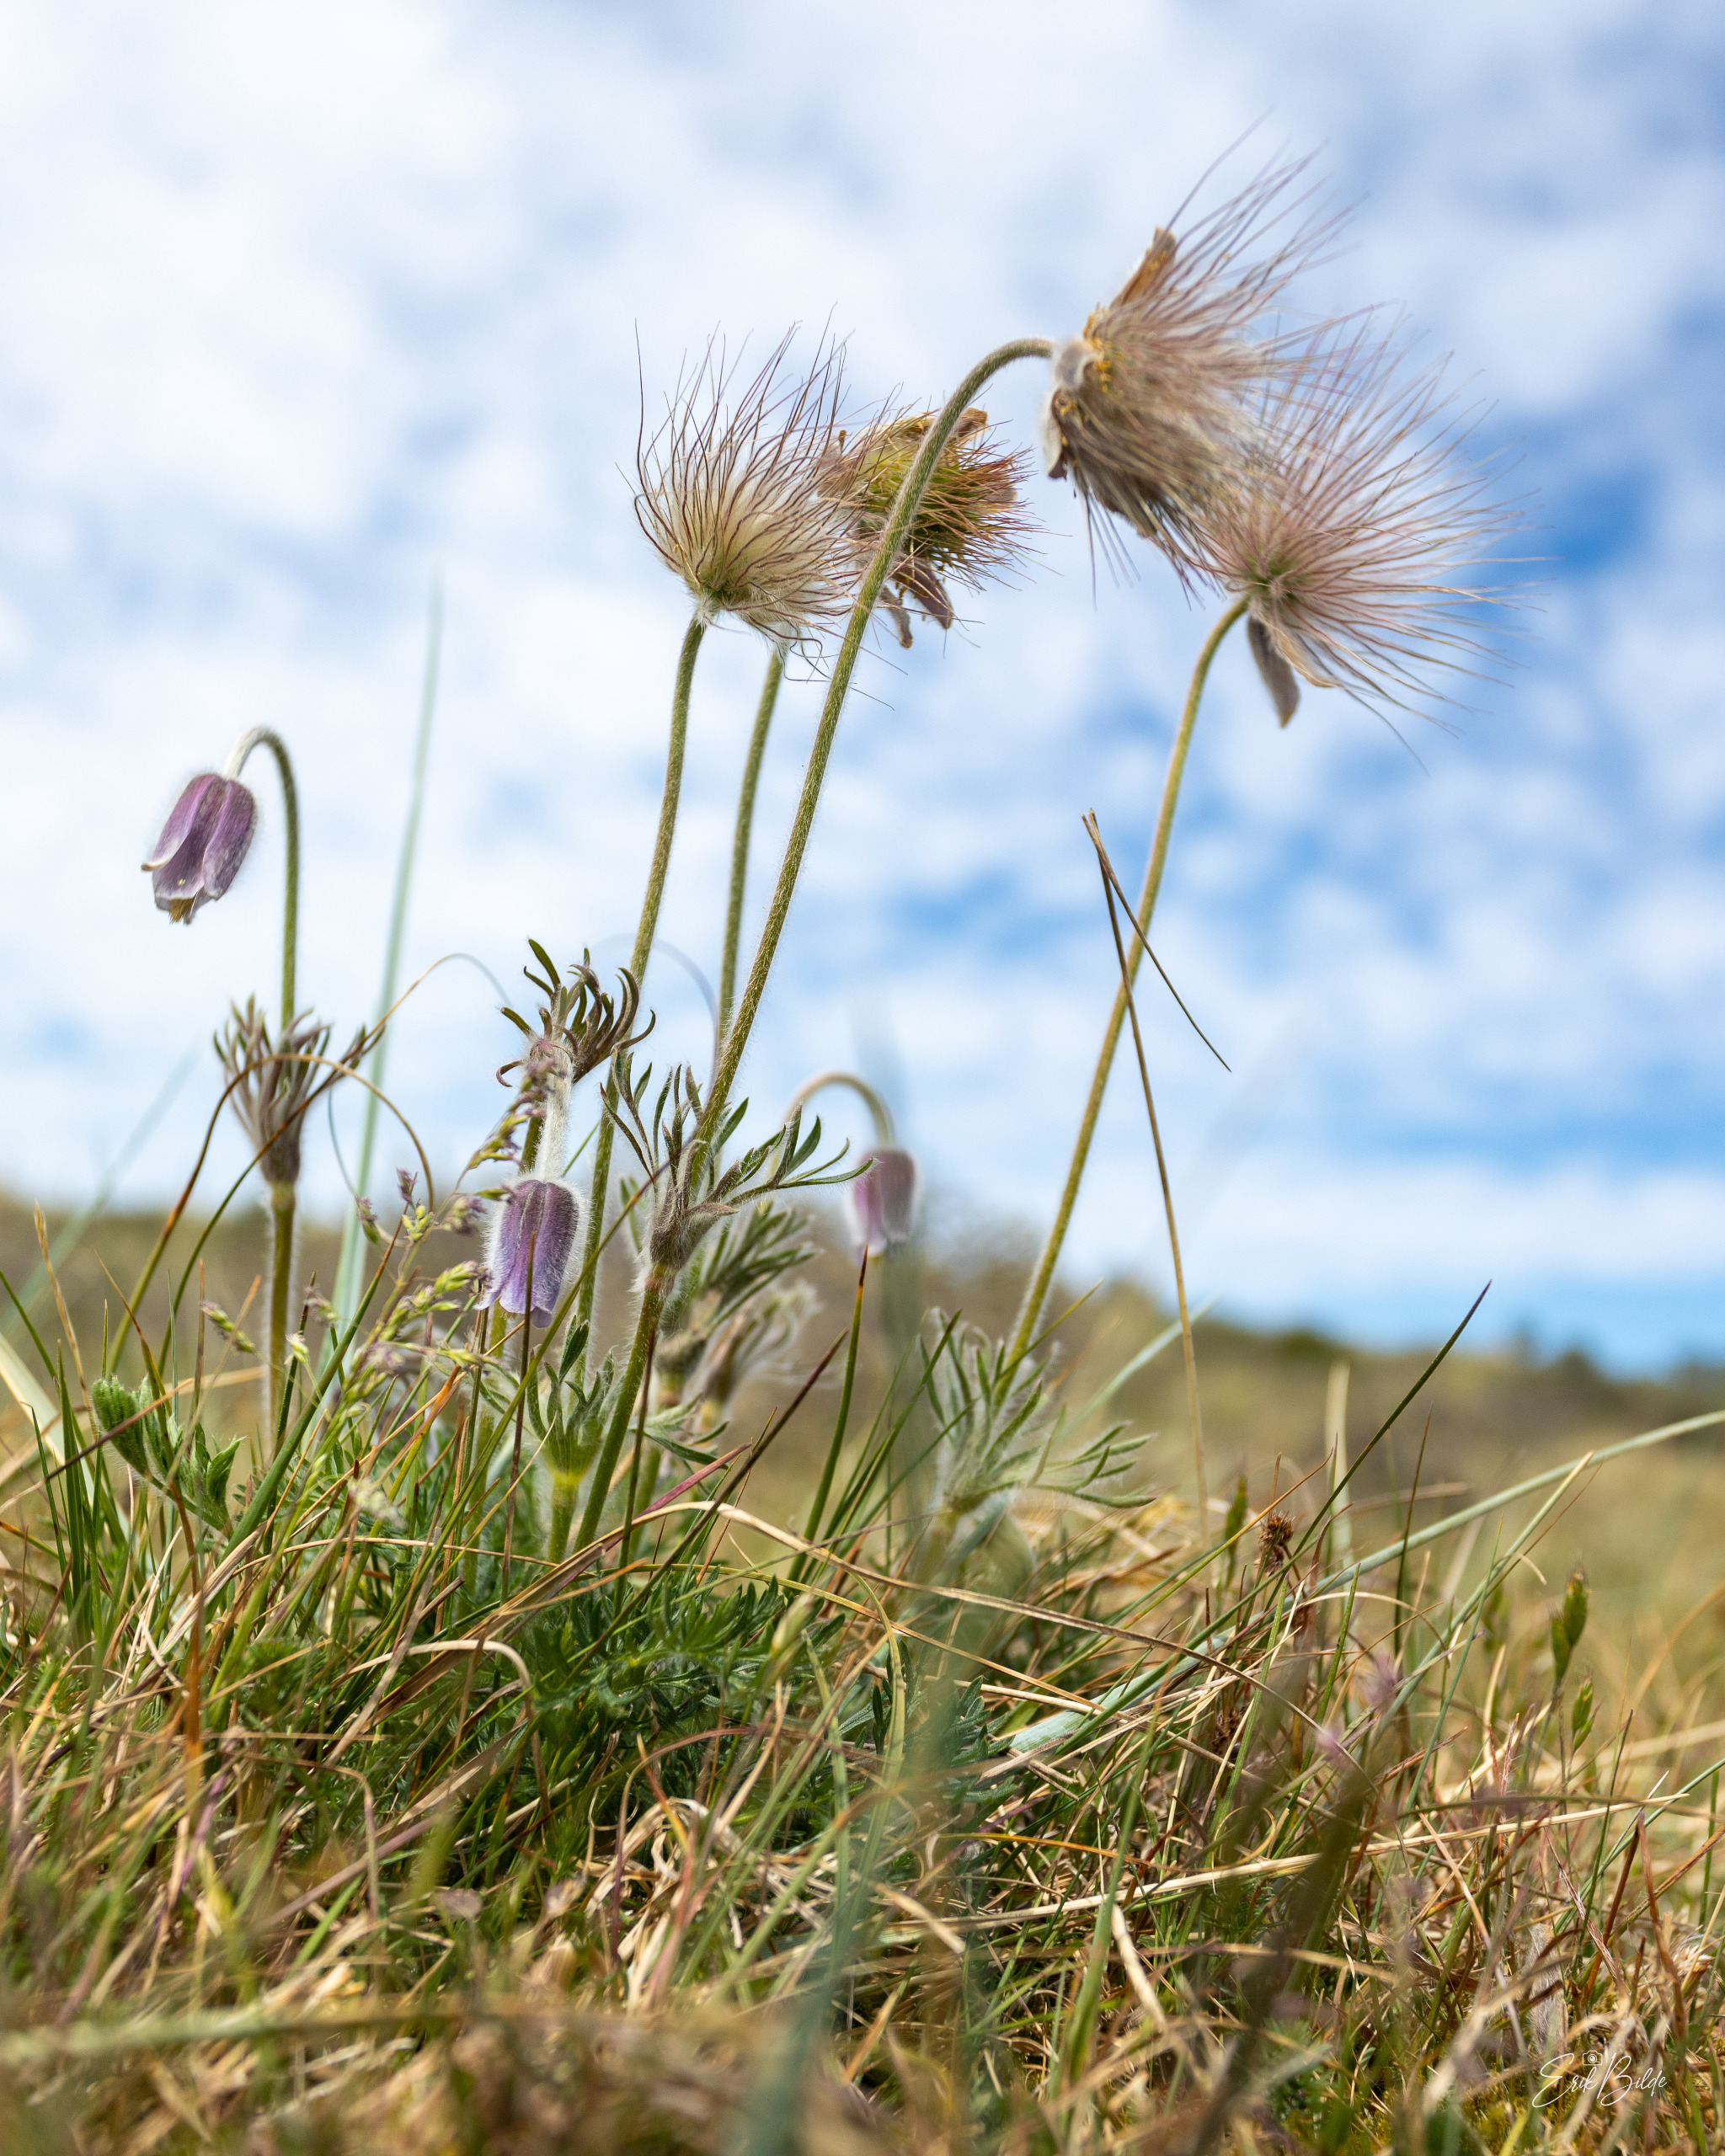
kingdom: Plantae
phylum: Tracheophyta
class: Magnoliopsida
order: Ranunculales
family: Ranunculaceae
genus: Pulsatilla
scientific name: Pulsatilla pratensis
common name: Nikkende kobjælde
